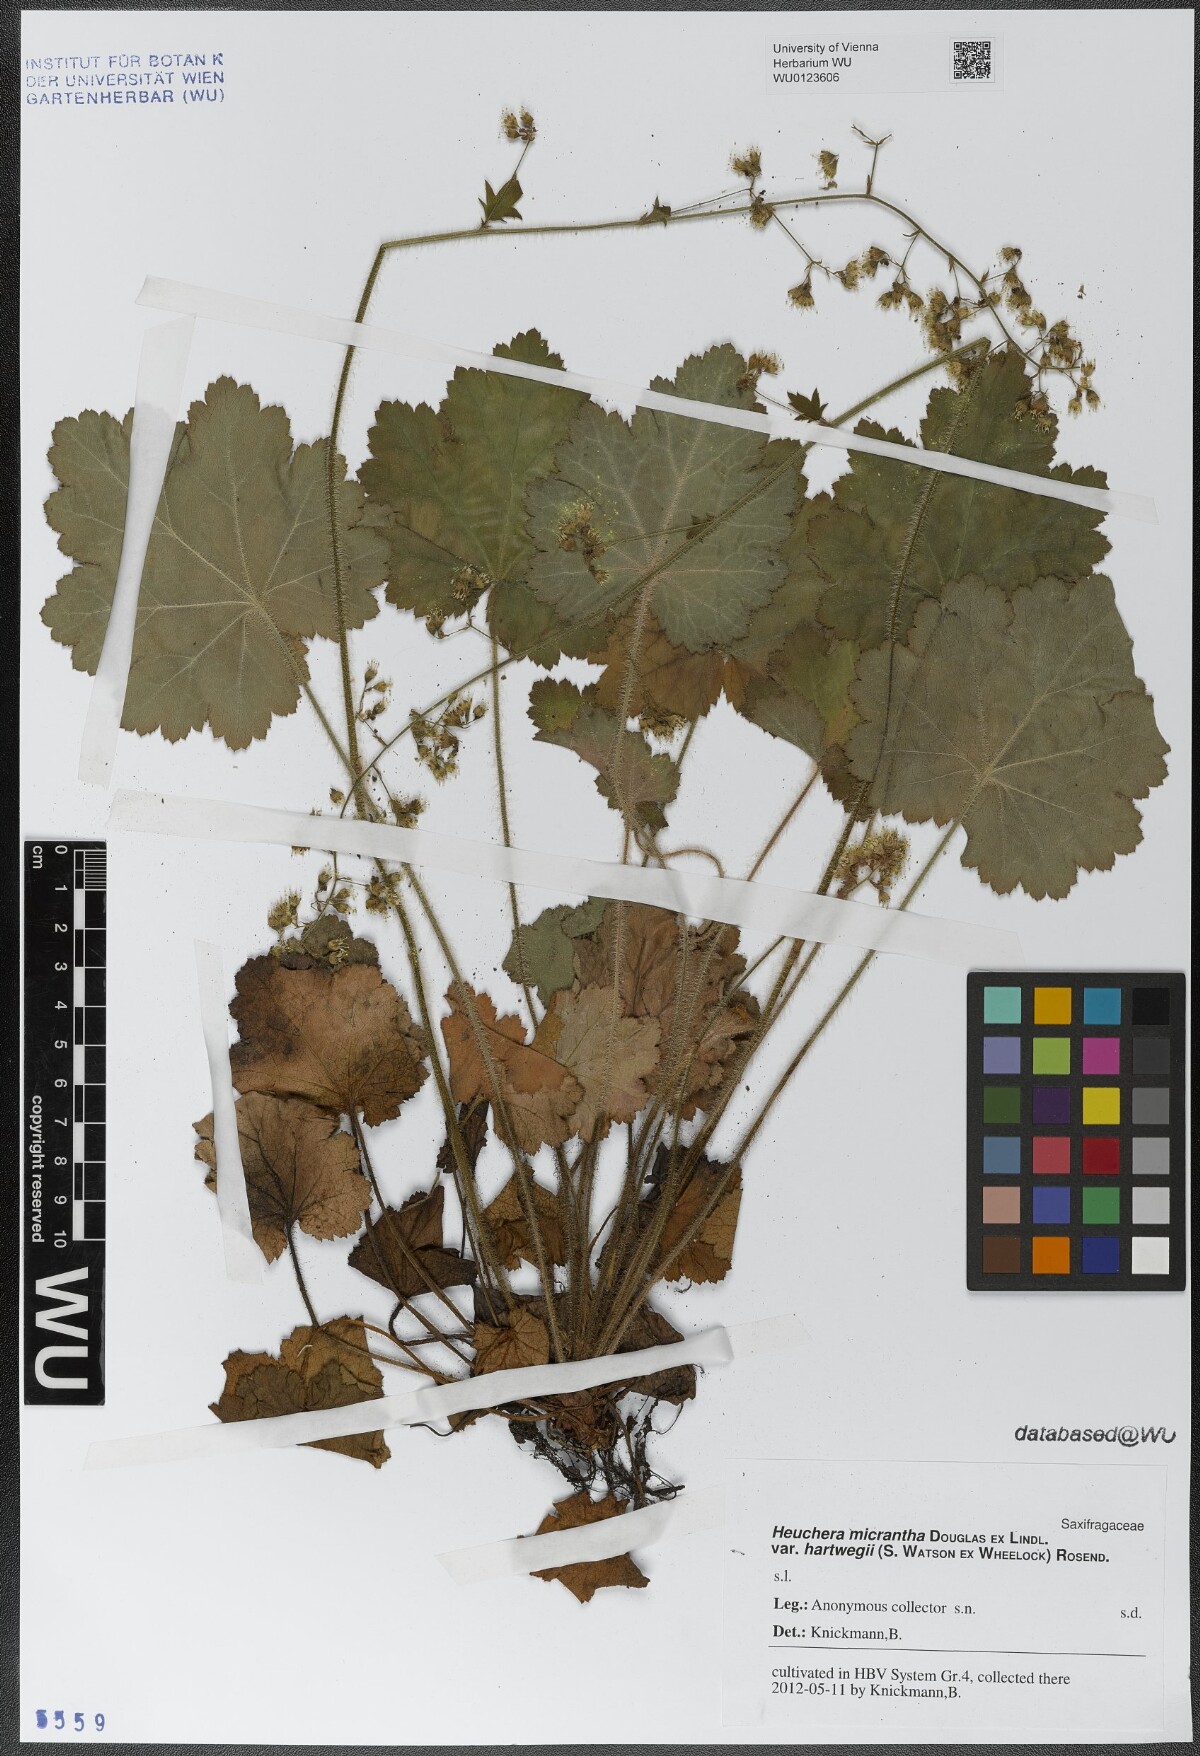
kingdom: Plantae
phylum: Tracheophyta
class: Magnoliopsida
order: Saxifragales
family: Saxifragaceae
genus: Heuchera
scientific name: Heuchera micrantha
